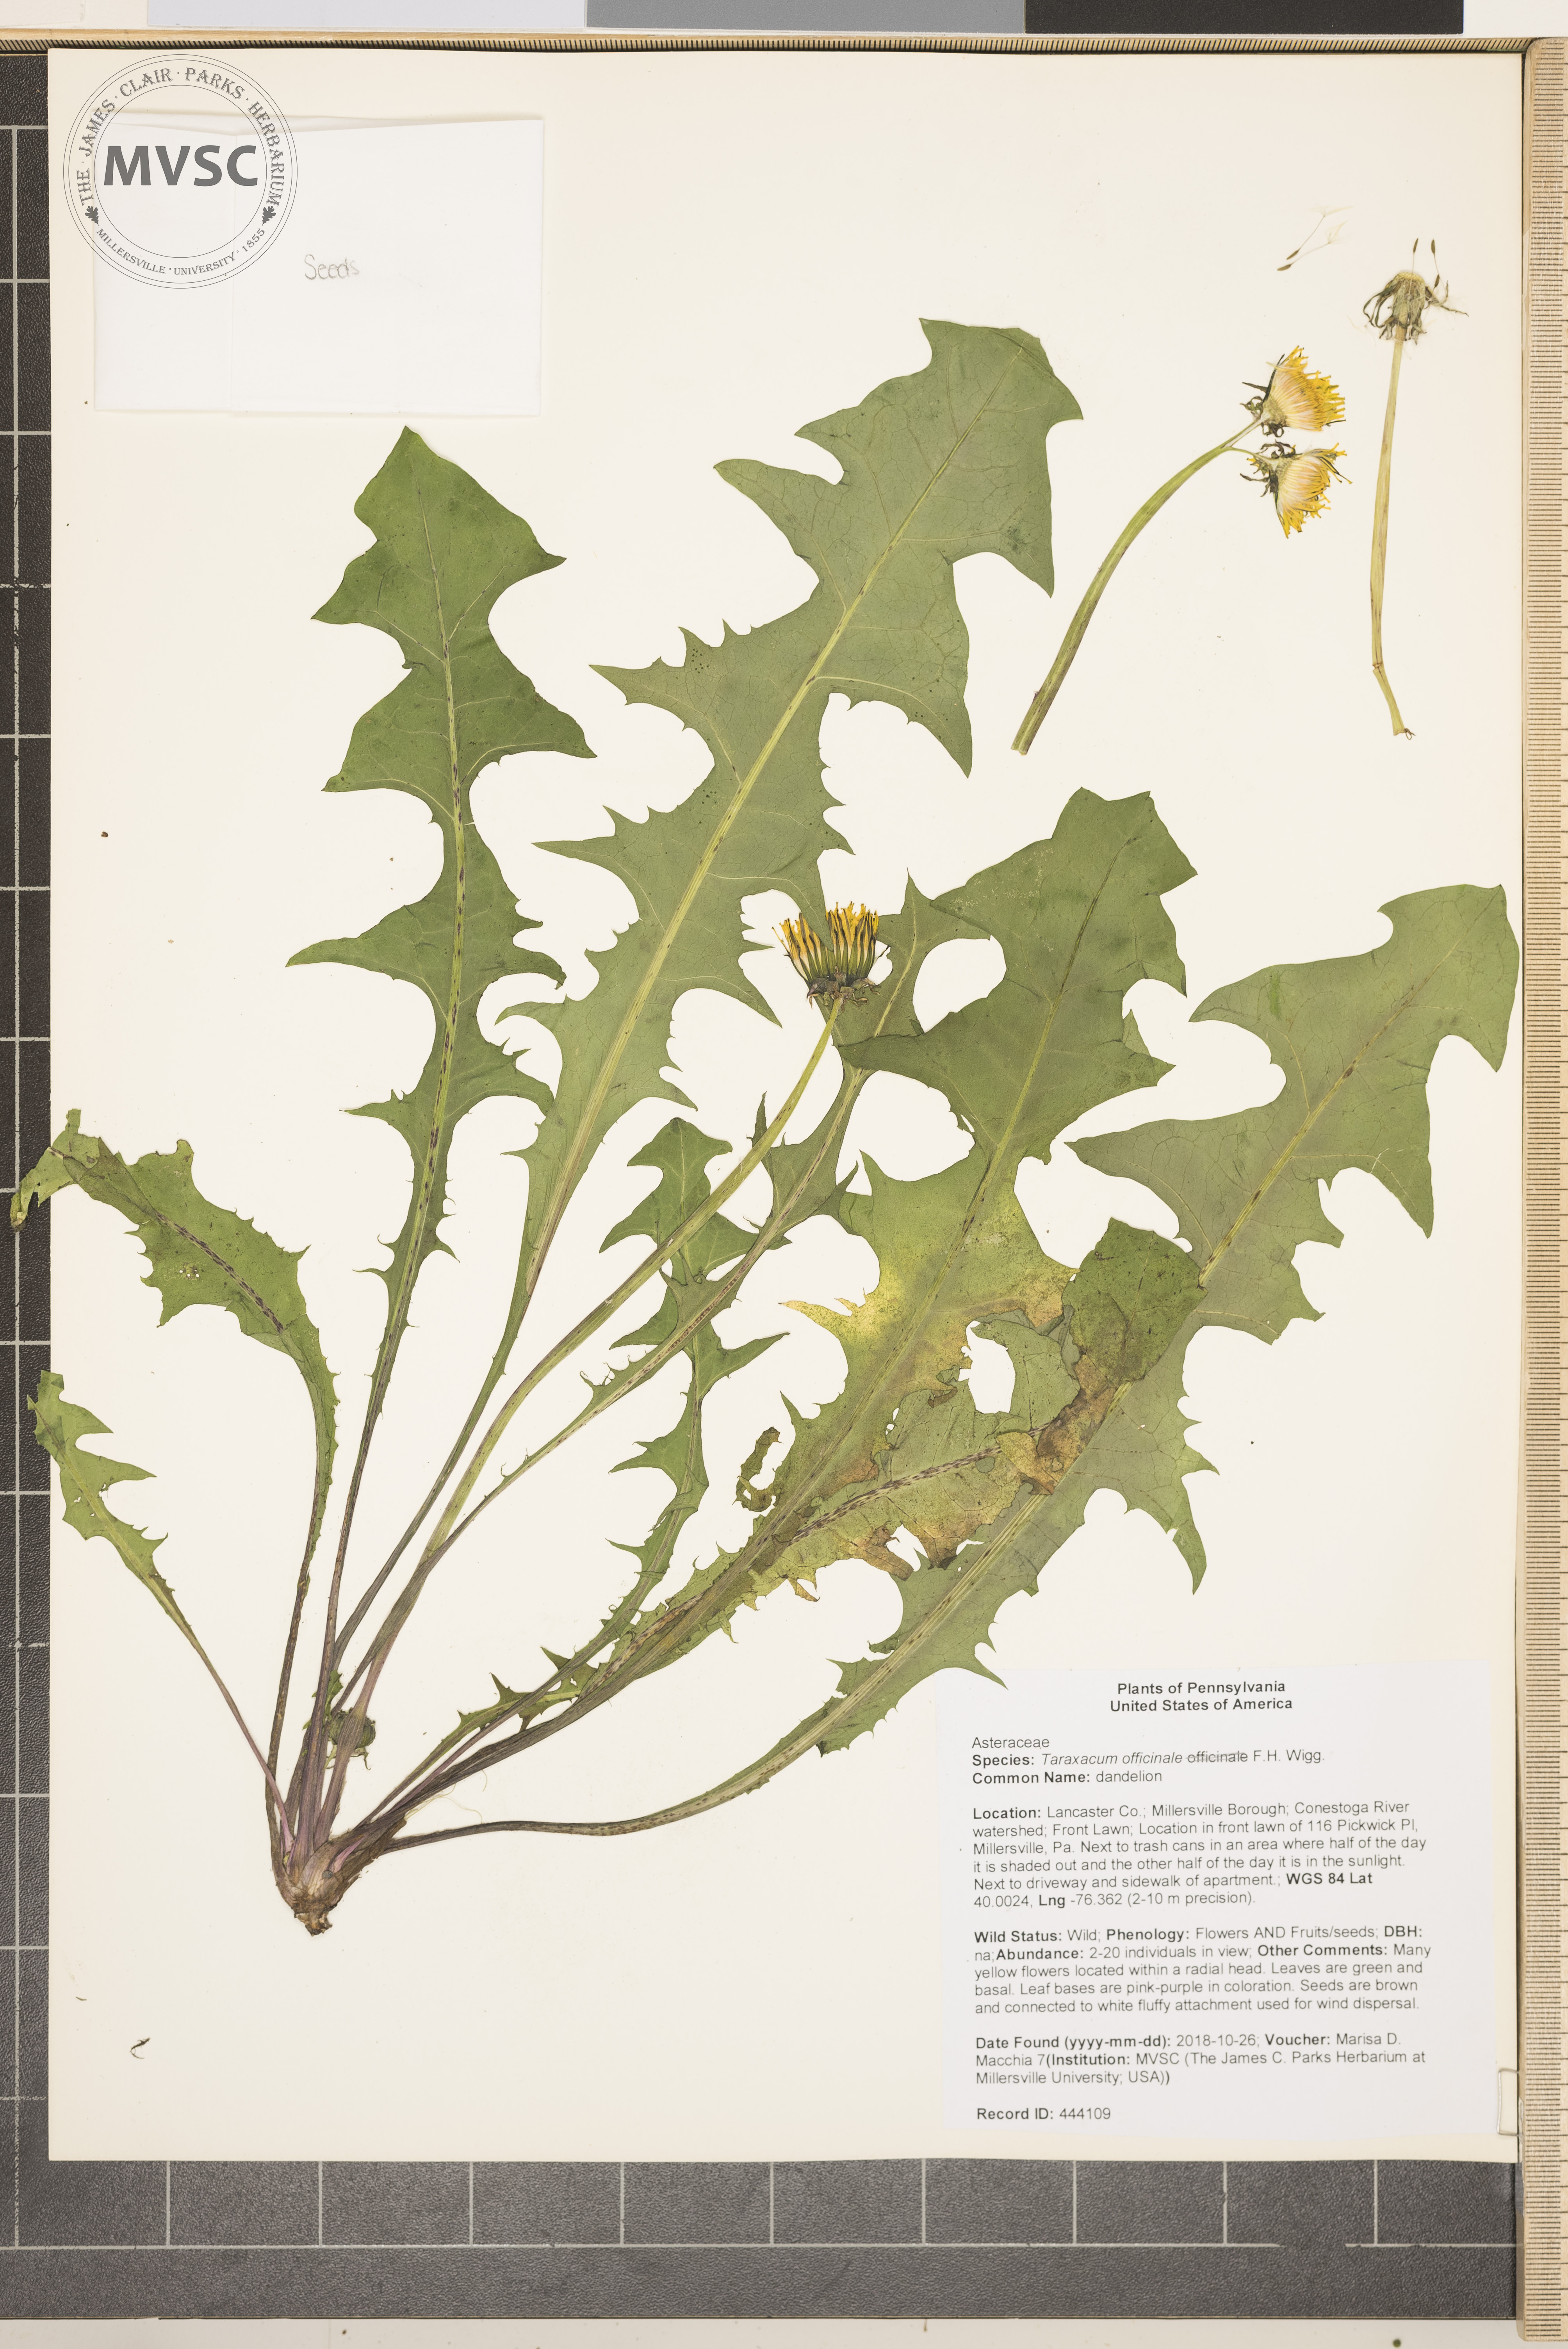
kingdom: Plantae
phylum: Tracheophyta
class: Magnoliopsida
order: Asterales
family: Asteraceae
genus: Taraxacum
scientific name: Taraxacum officinale
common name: dandelion
